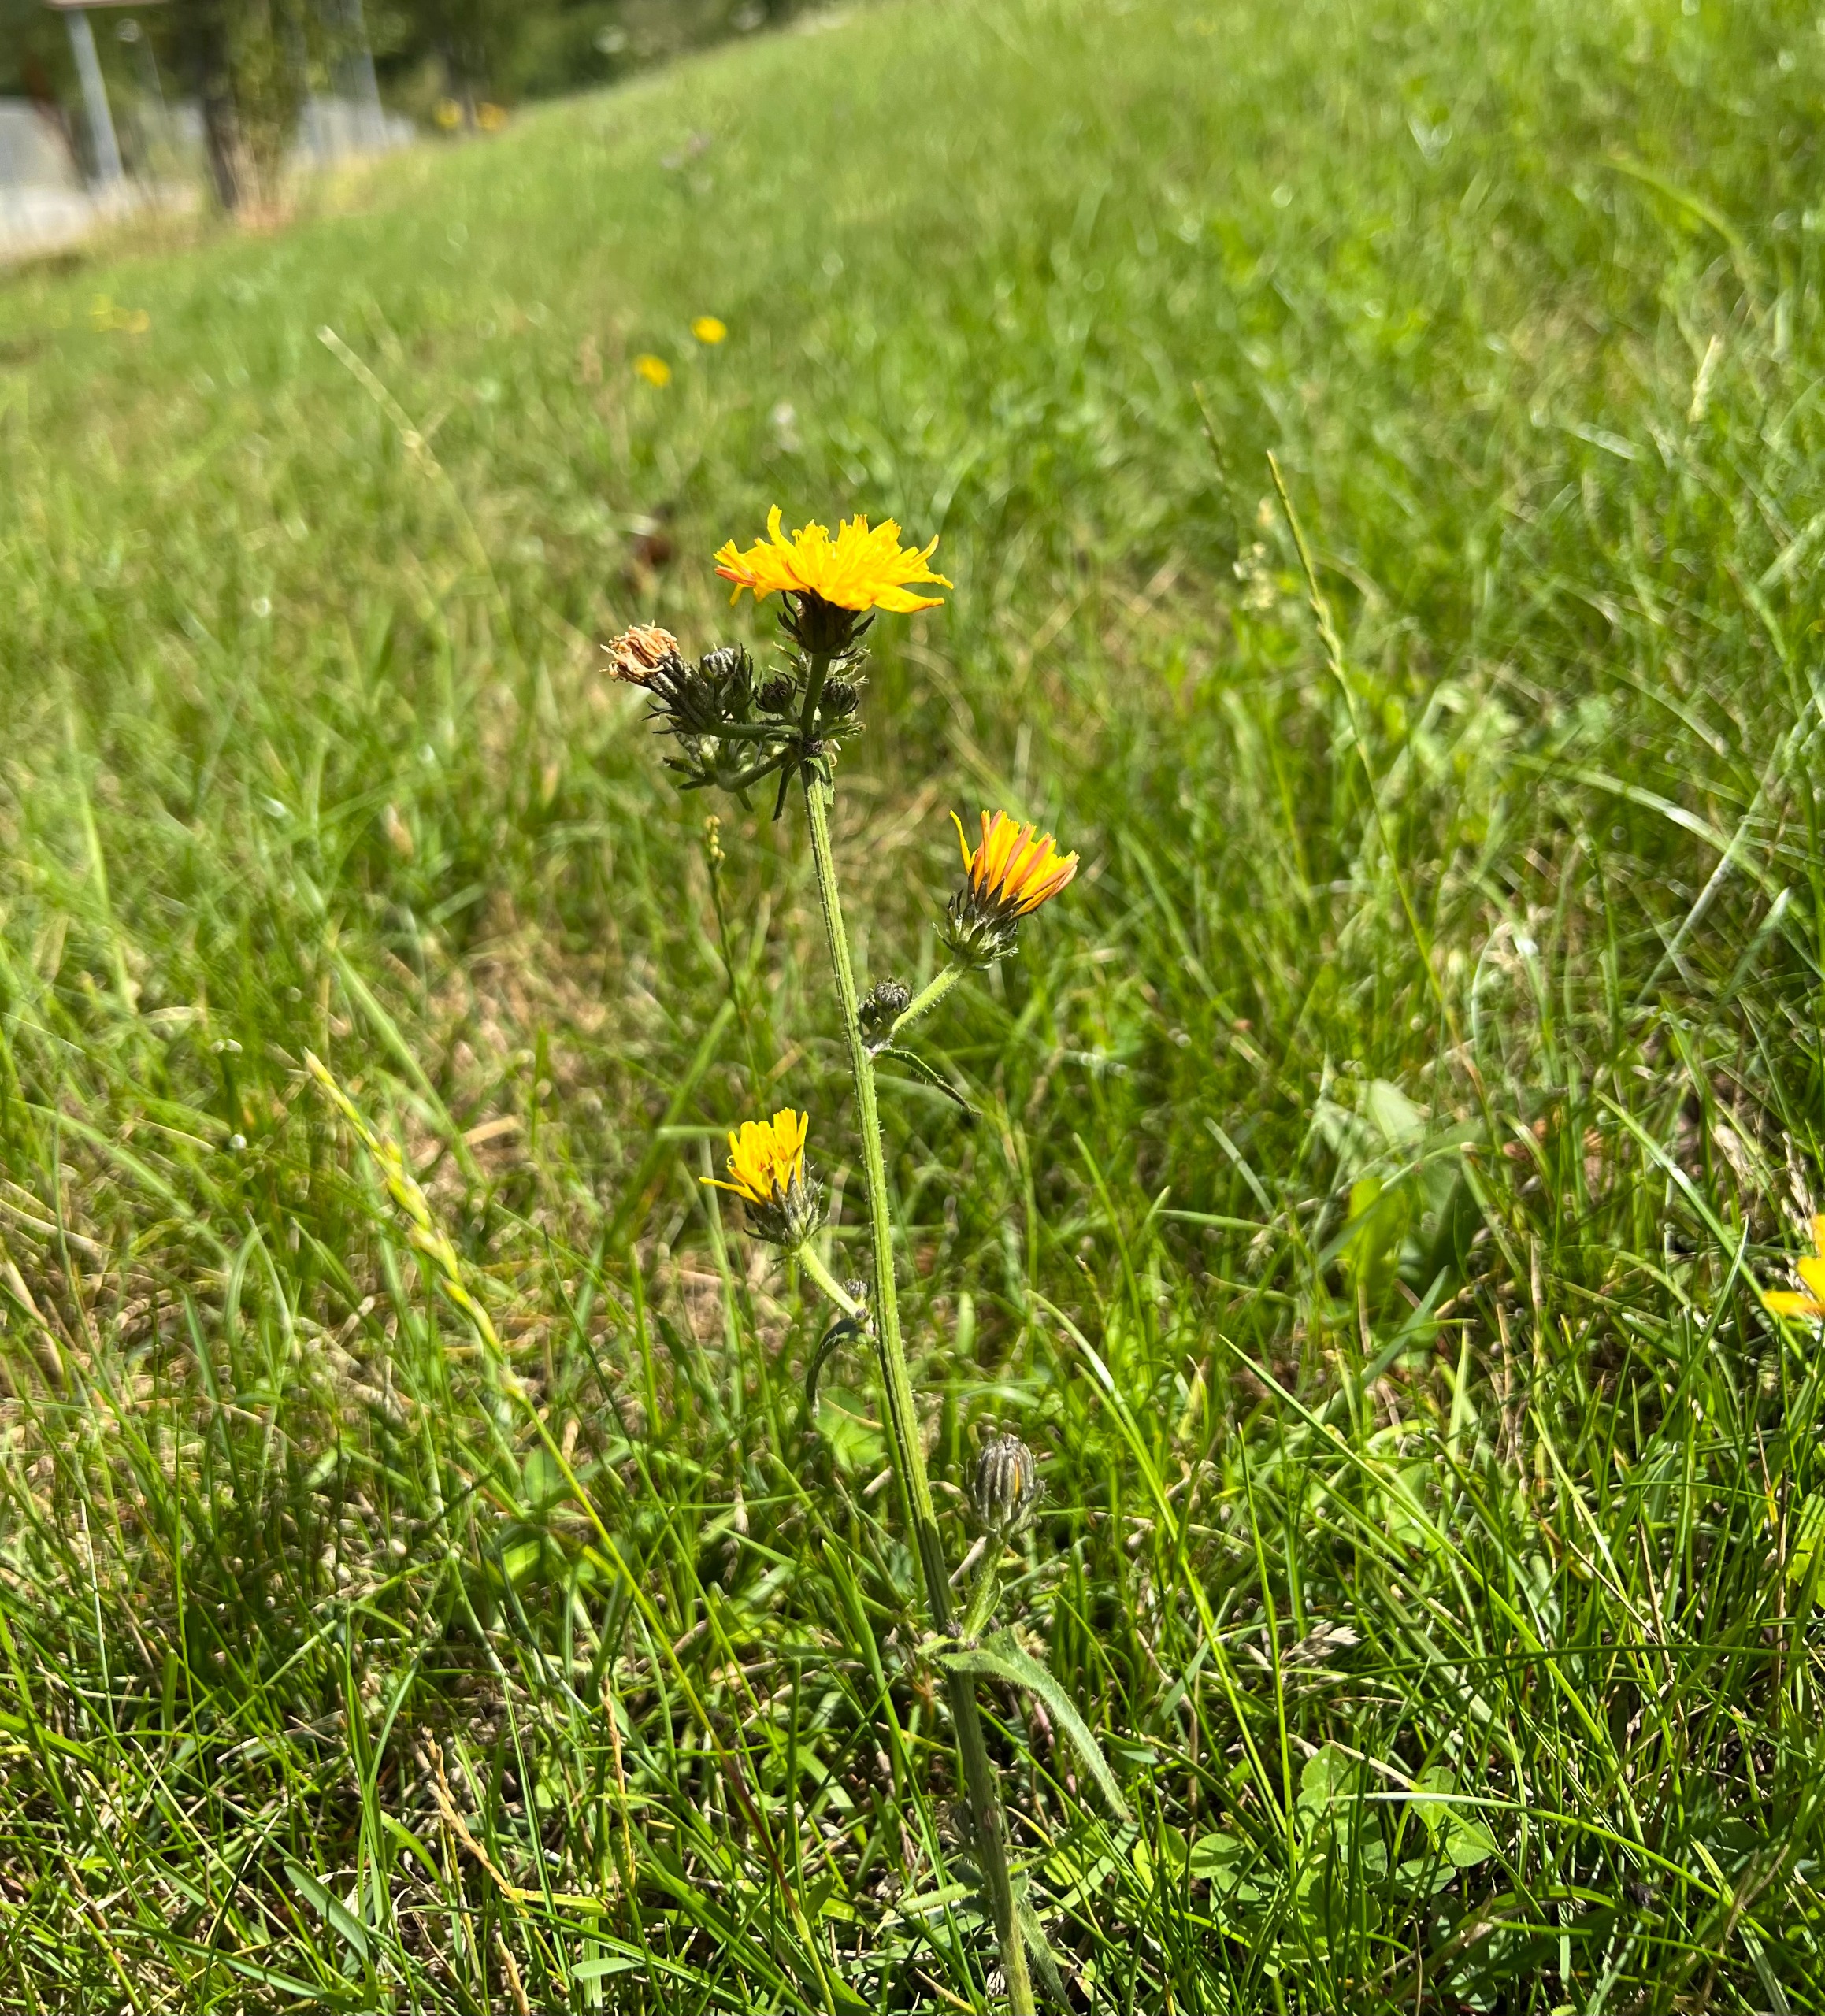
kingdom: Plantae
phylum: Tracheophyta
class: Magnoliopsida
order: Asterales
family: Asteraceae
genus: Picris
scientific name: Picris hieracioides
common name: Ru bittermælk
